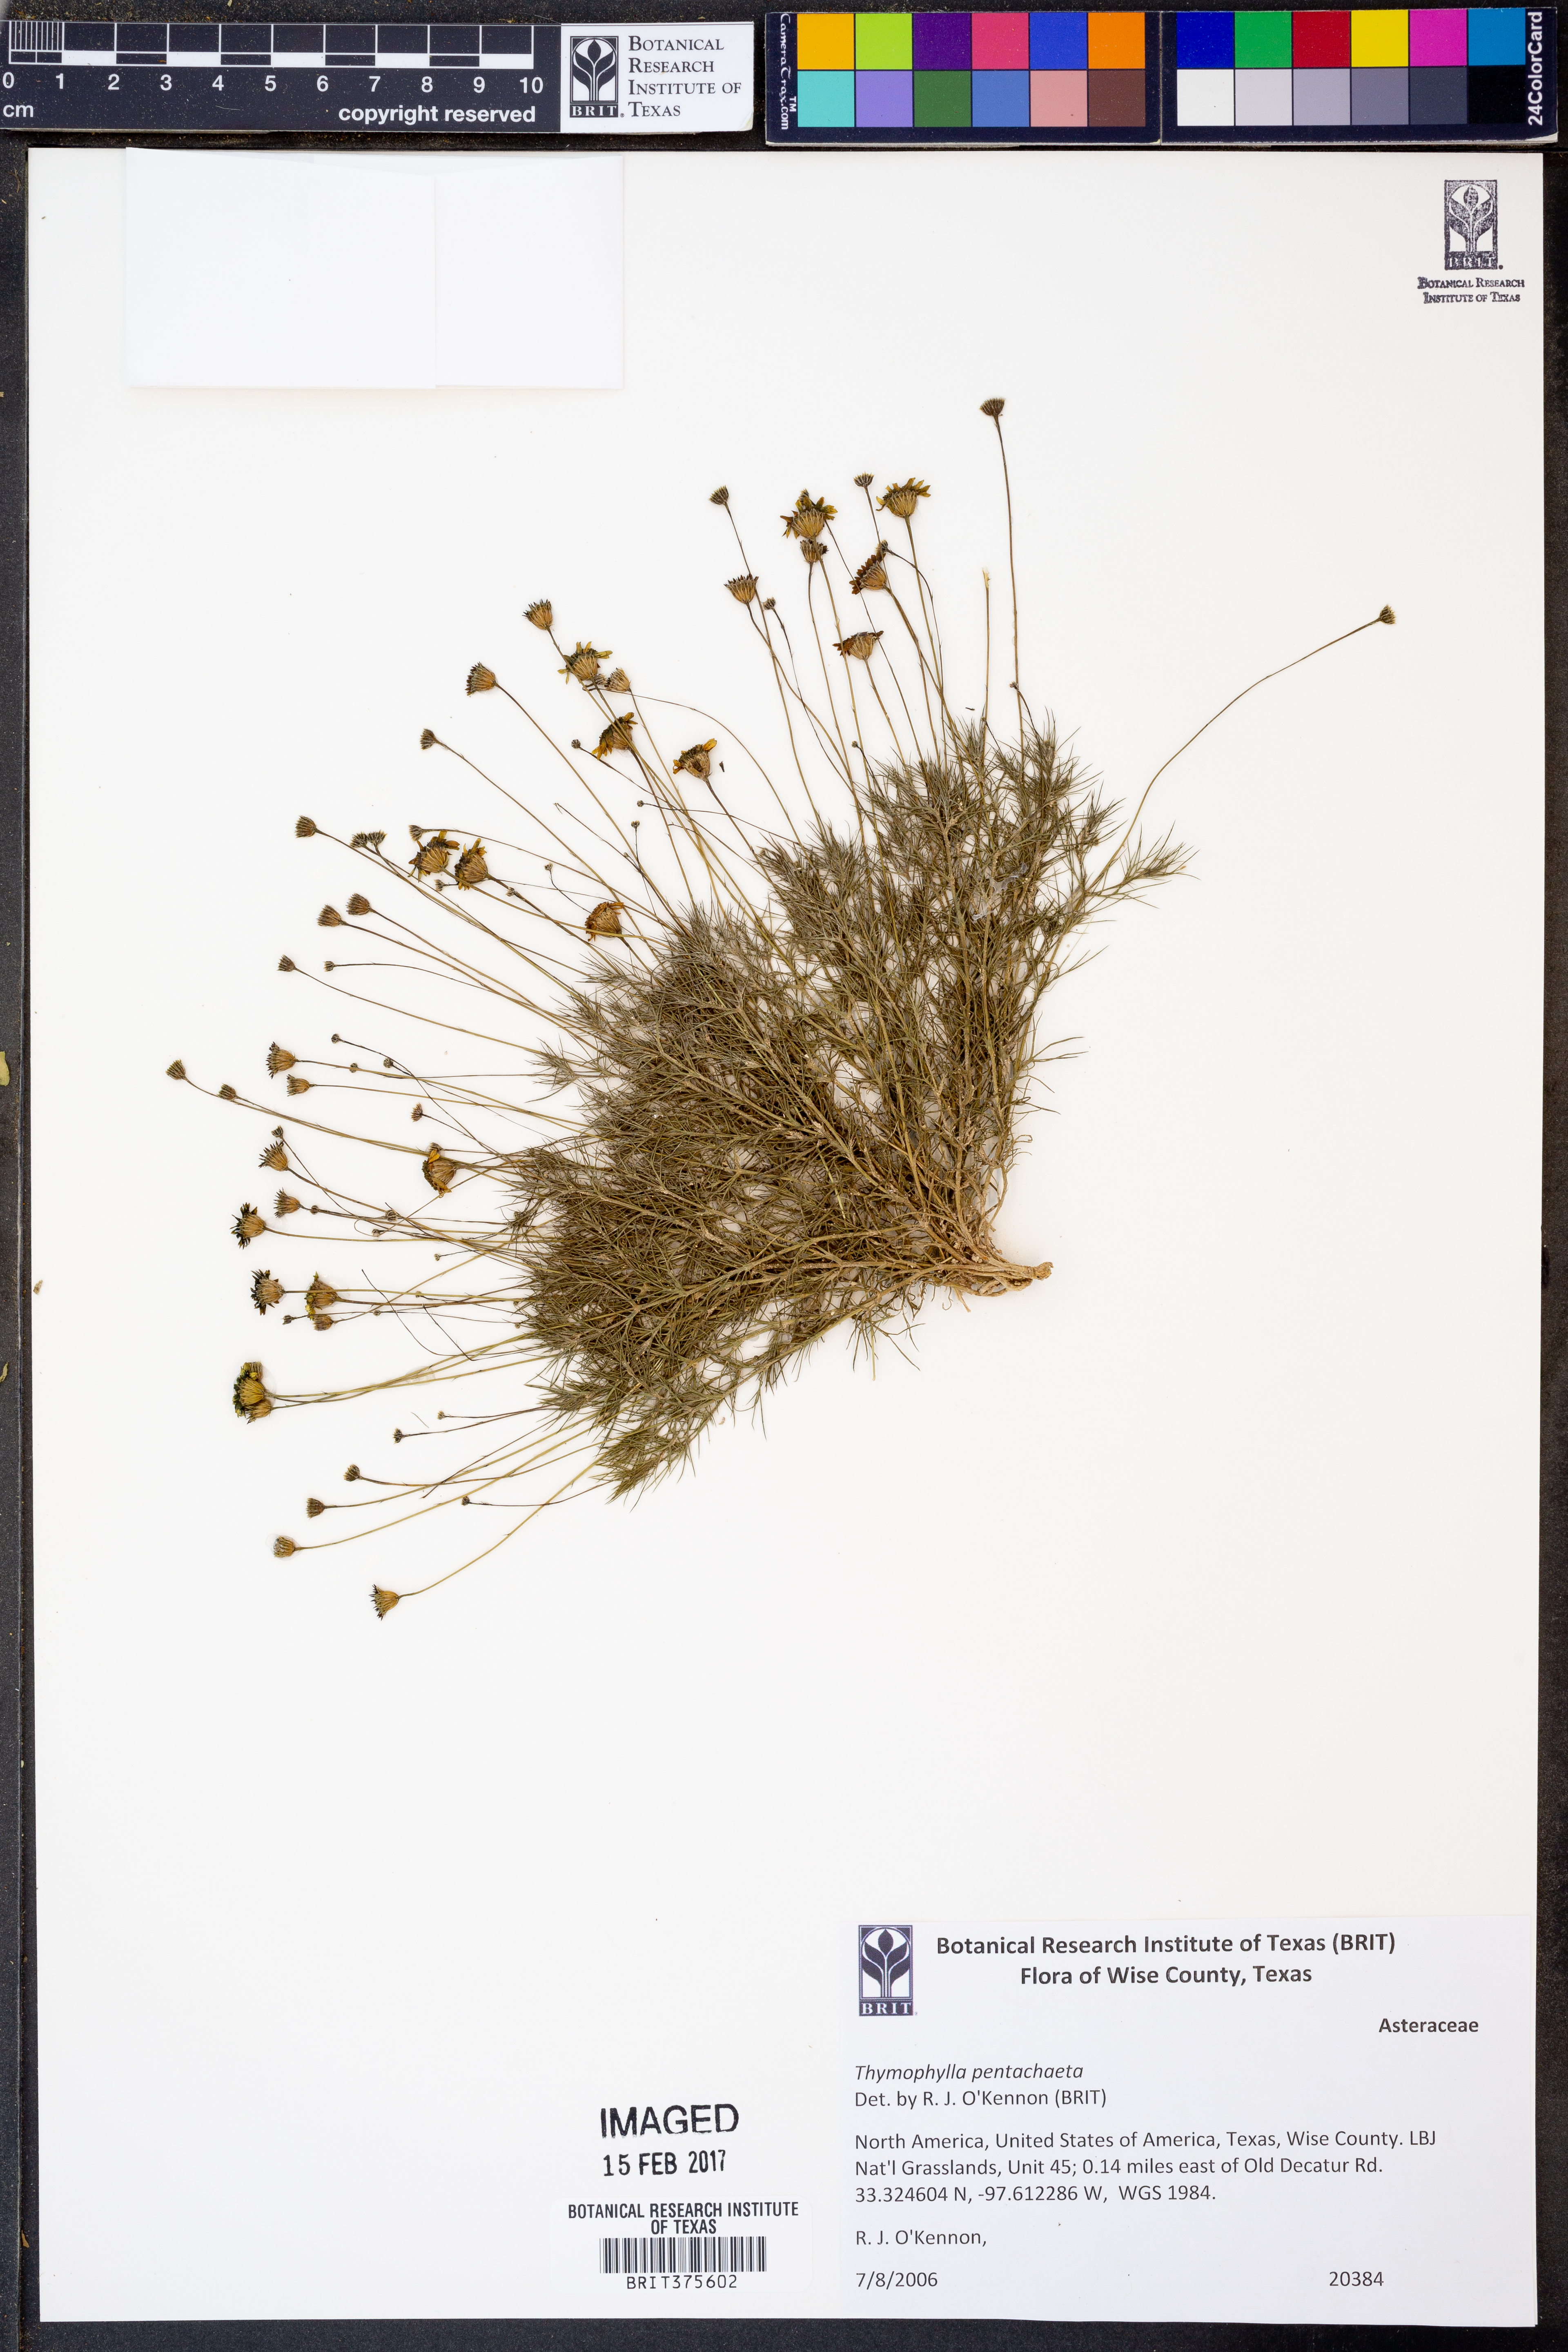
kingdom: Plantae
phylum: Tracheophyta
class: Magnoliopsida
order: Asterales
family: Asteraceae
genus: Thymophylla
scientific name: Thymophylla pentachaeta
